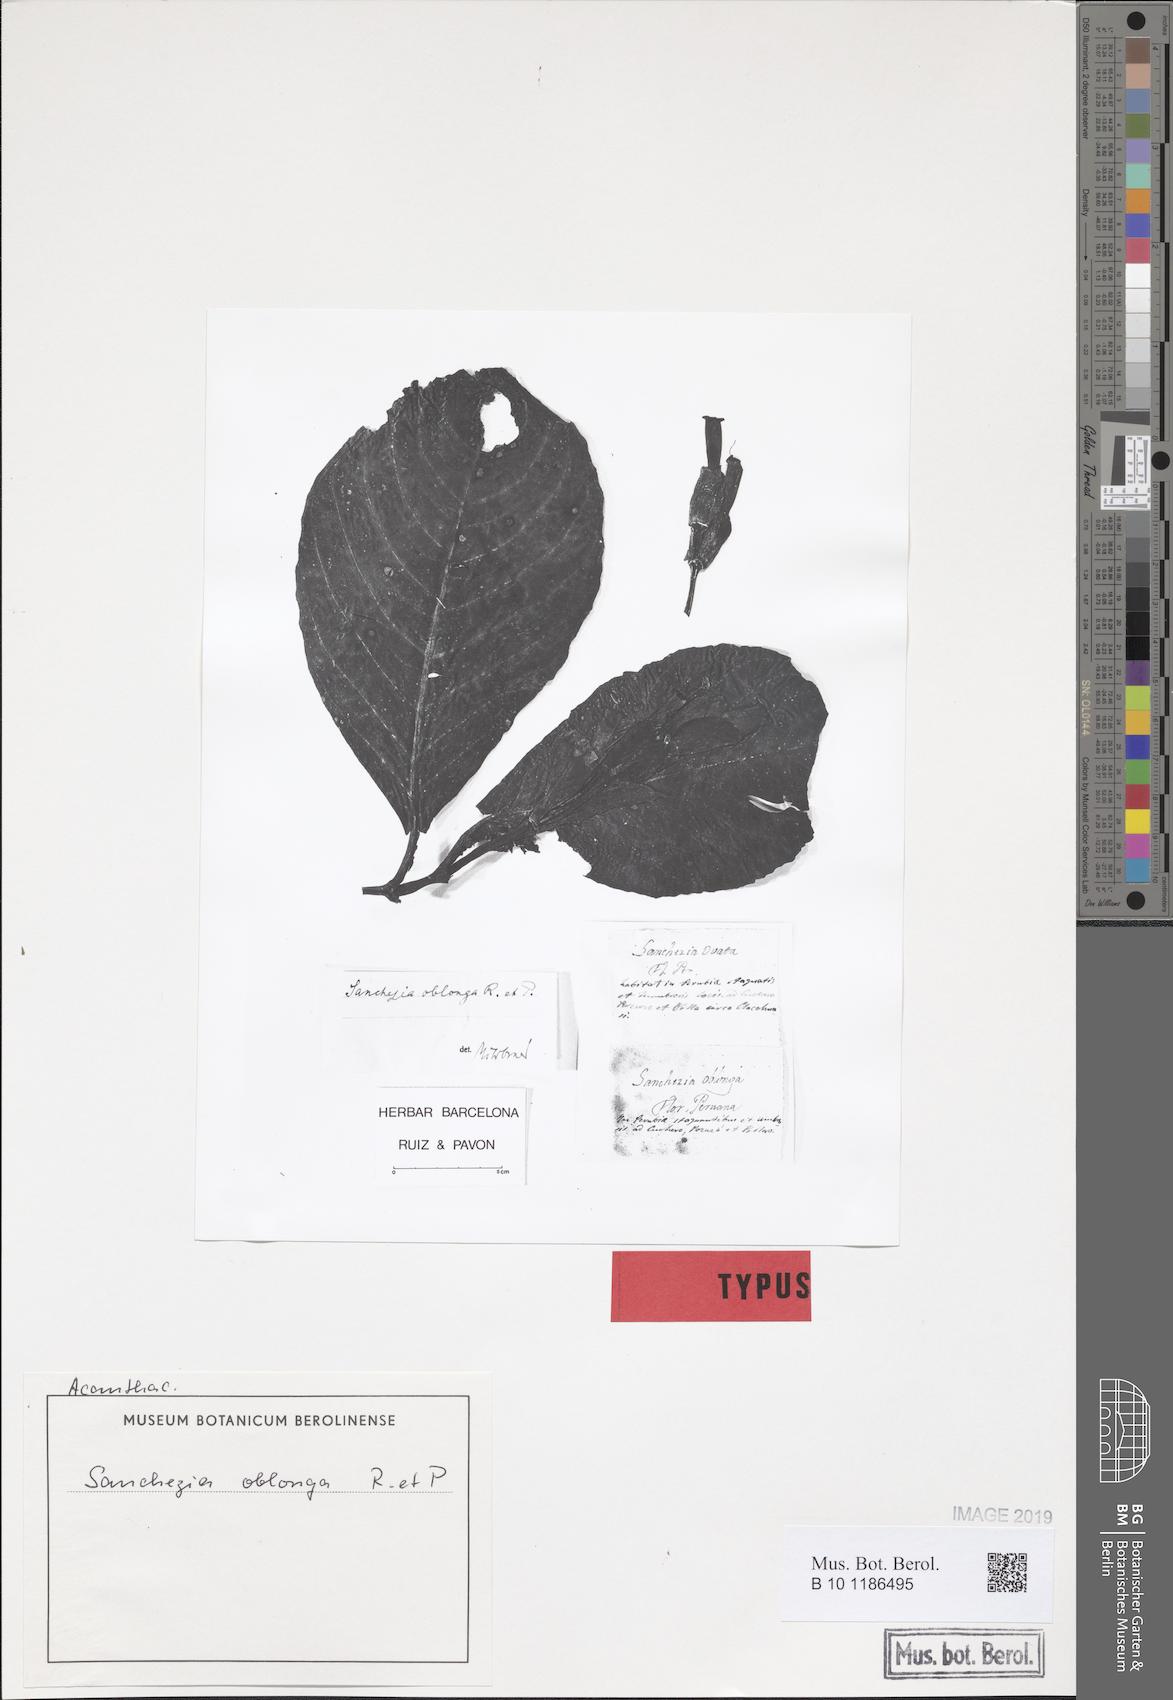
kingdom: Plantae
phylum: Tracheophyta
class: Magnoliopsida
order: Lamiales
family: Acanthaceae
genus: Sanchezia
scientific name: Sanchezia oblonga
